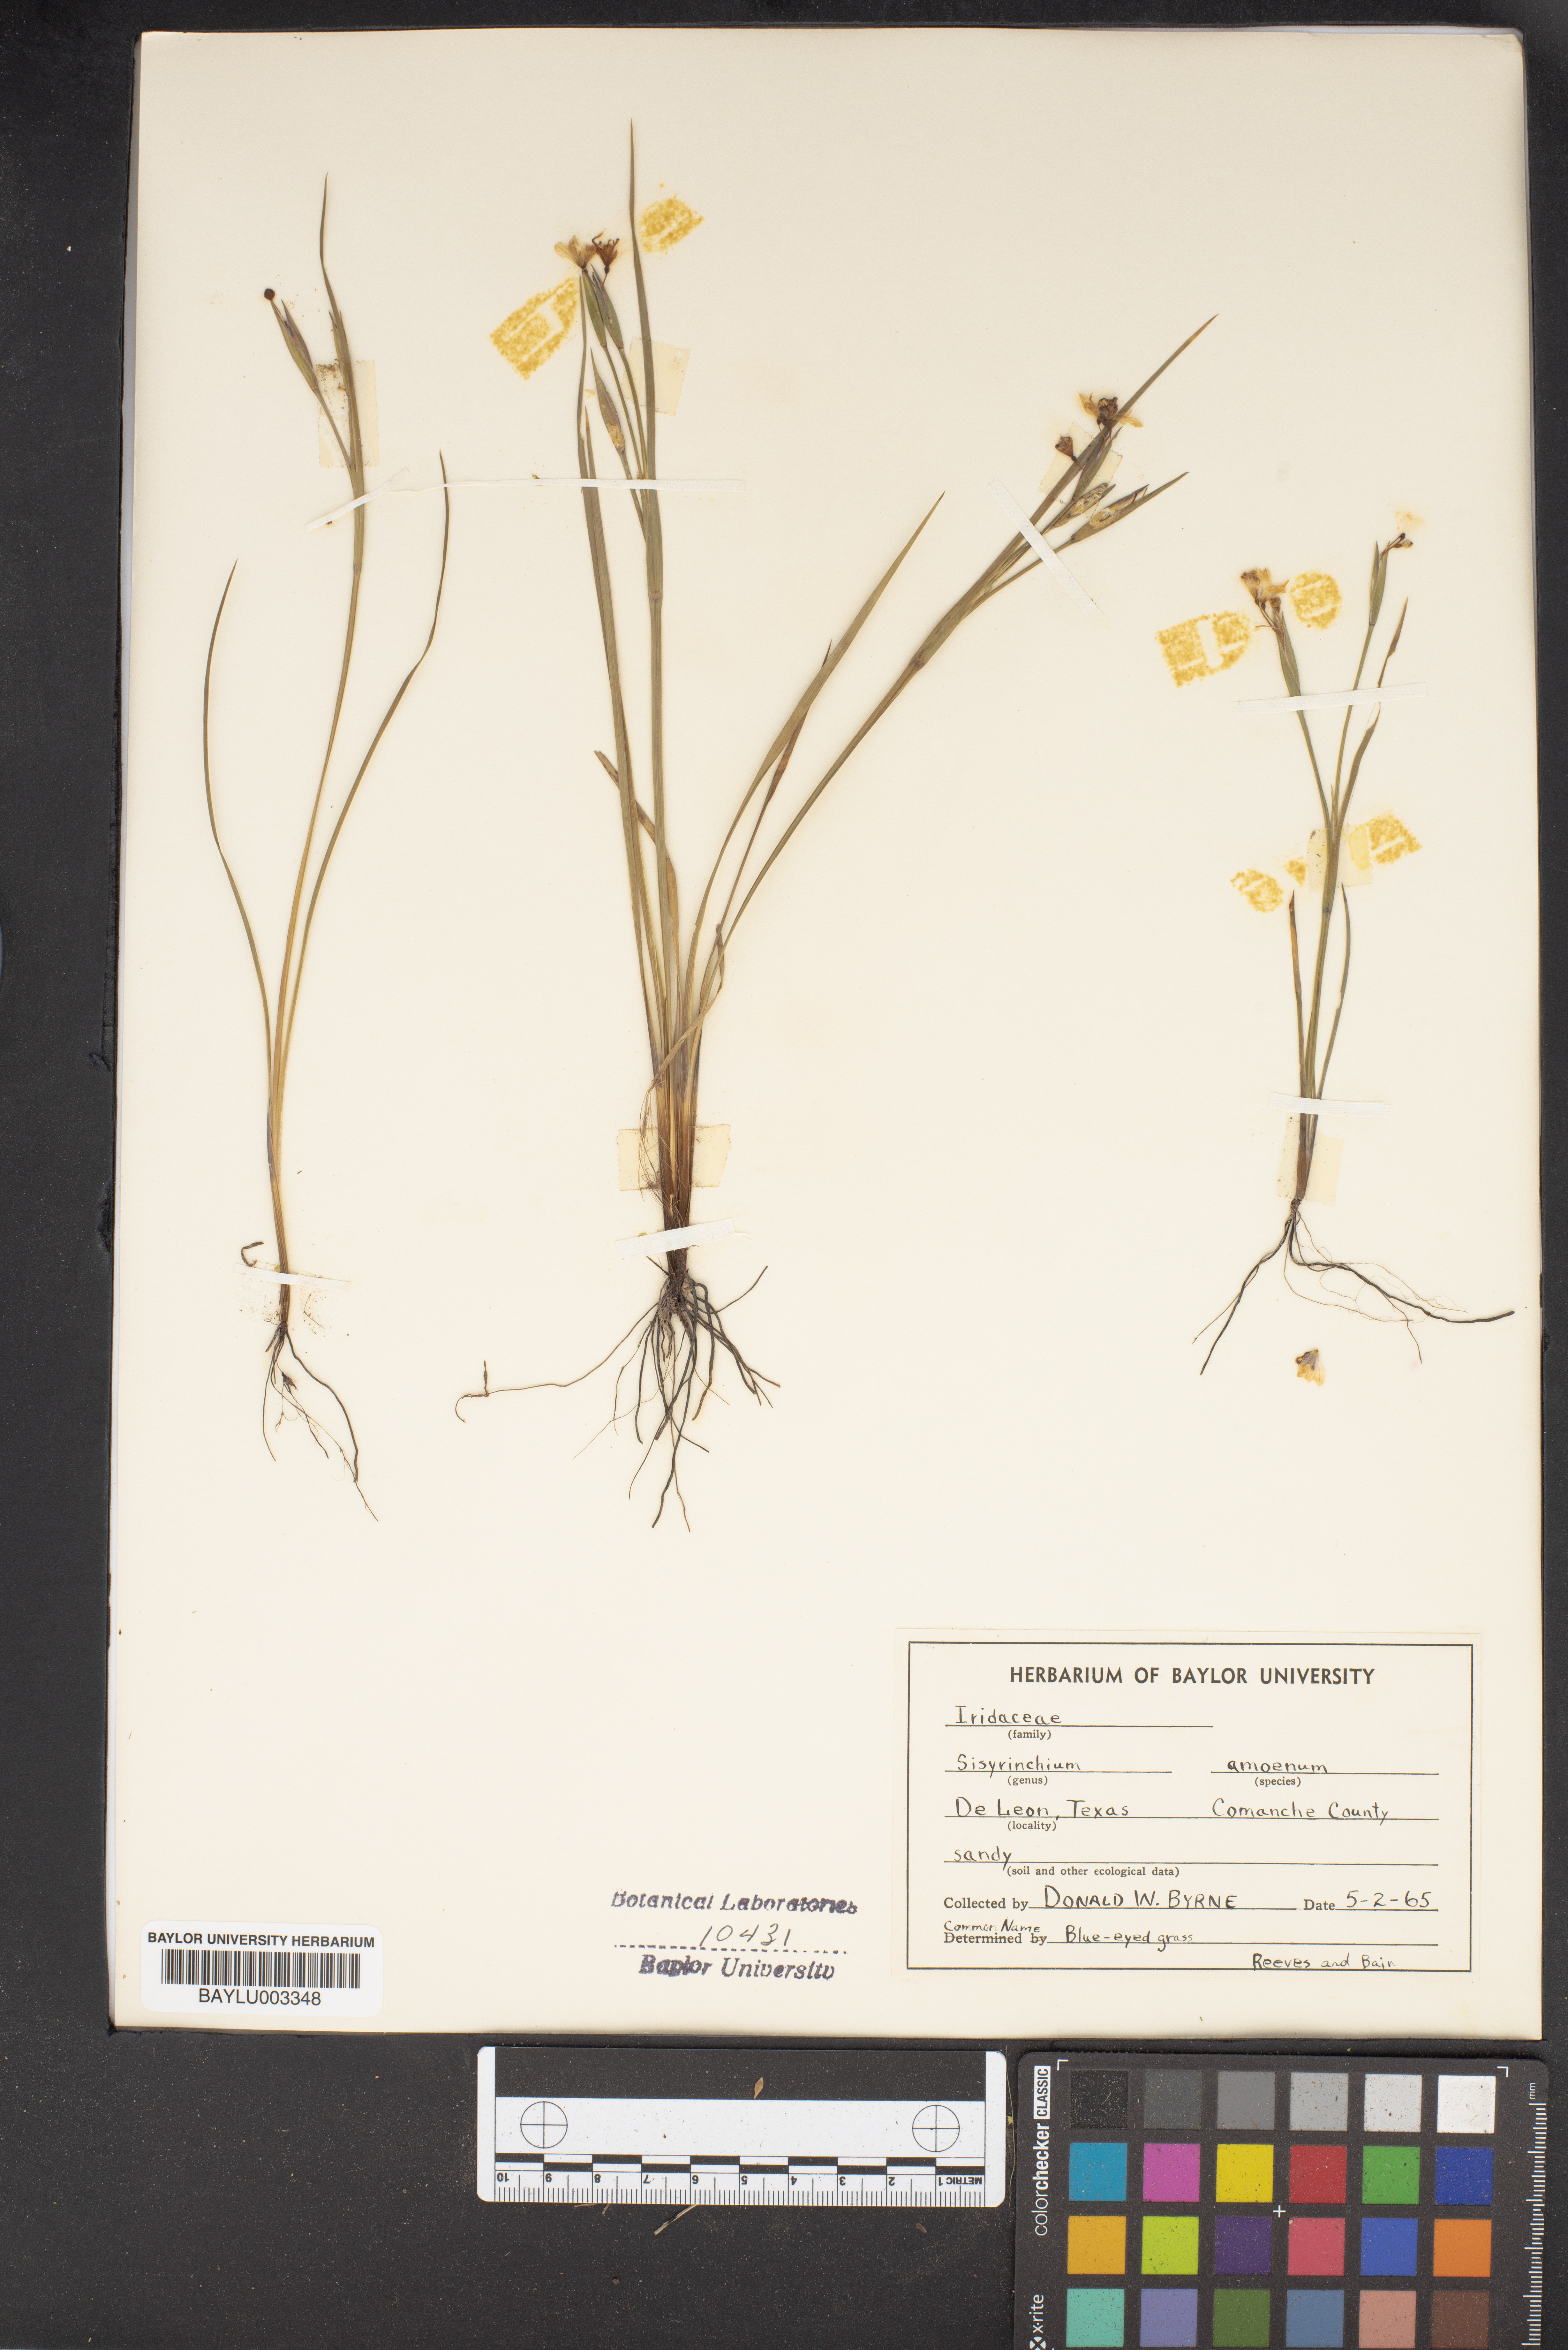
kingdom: Plantae
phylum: Tracheophyta
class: Liliopsida
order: Asparagales
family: Iridaceae
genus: Sisyrinchium
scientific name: Sisyrinchium ensigerum
